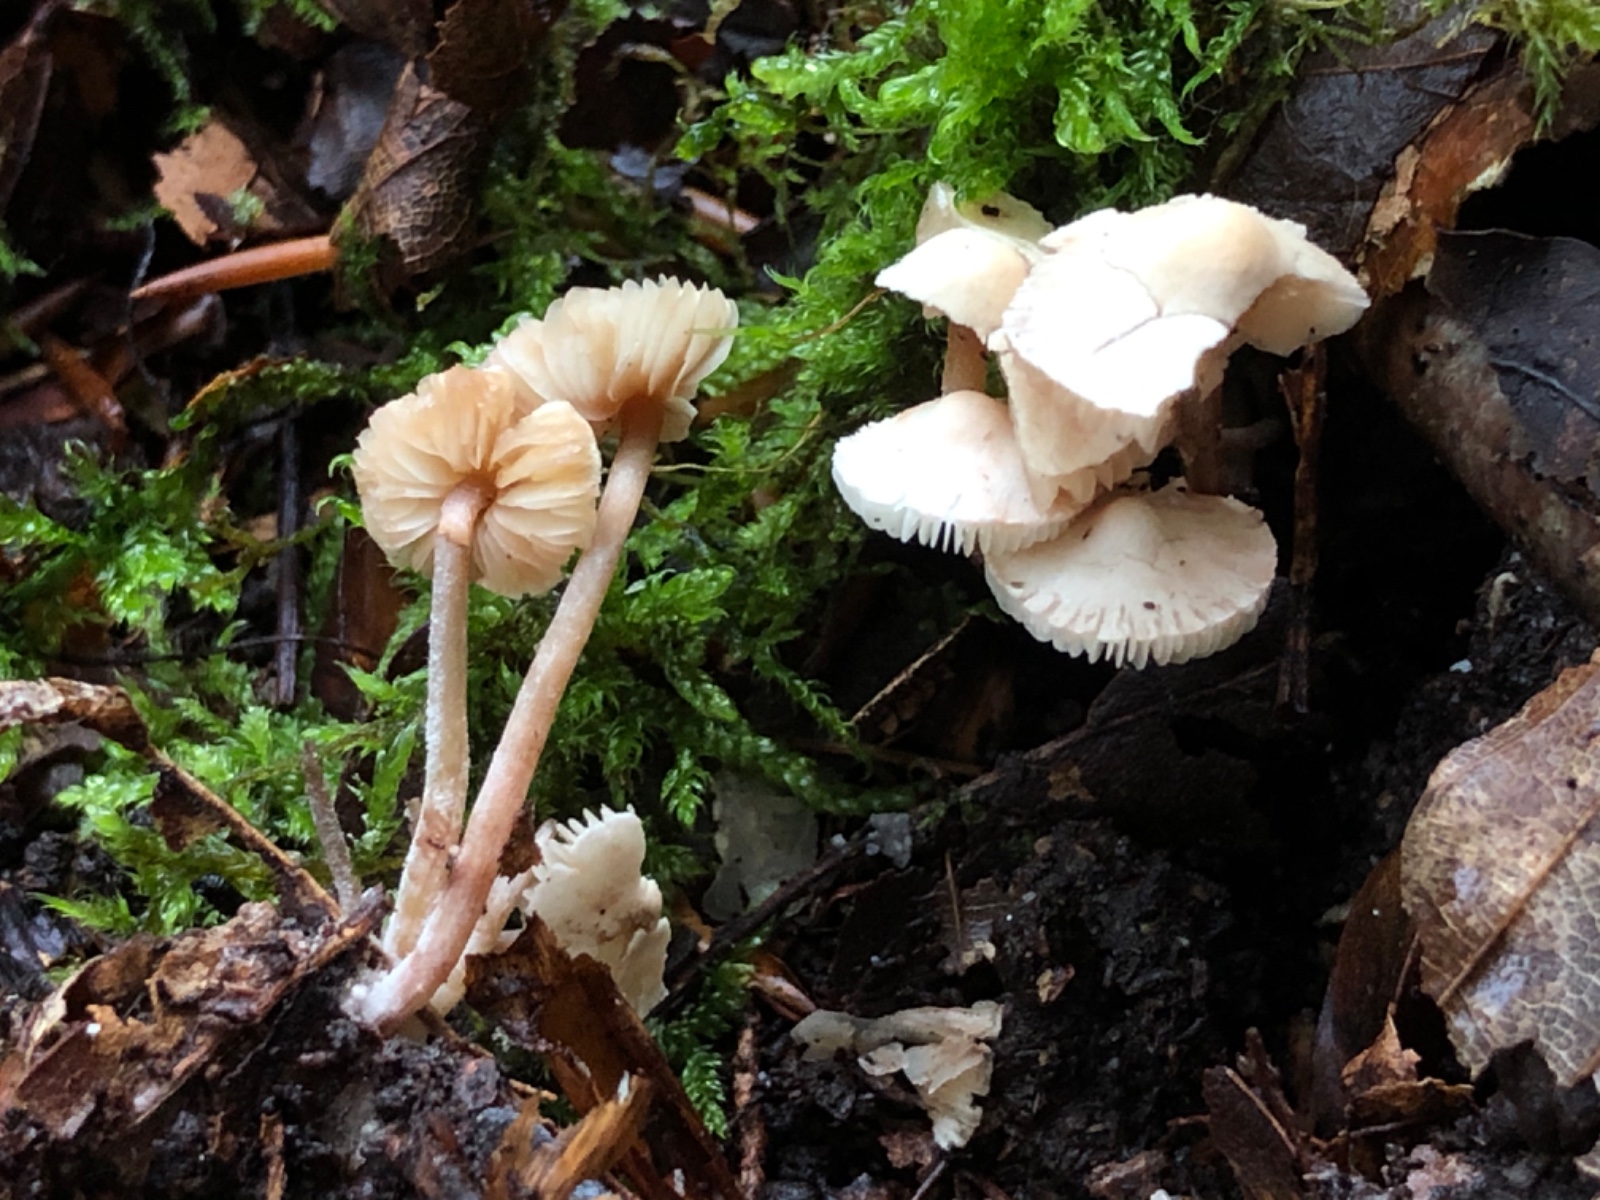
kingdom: Fungi
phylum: Basidiomycota
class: Agaricomycetes
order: Agaricales
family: Agaricaceae
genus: Cystolepiota
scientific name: Cystolepiota seminuda
